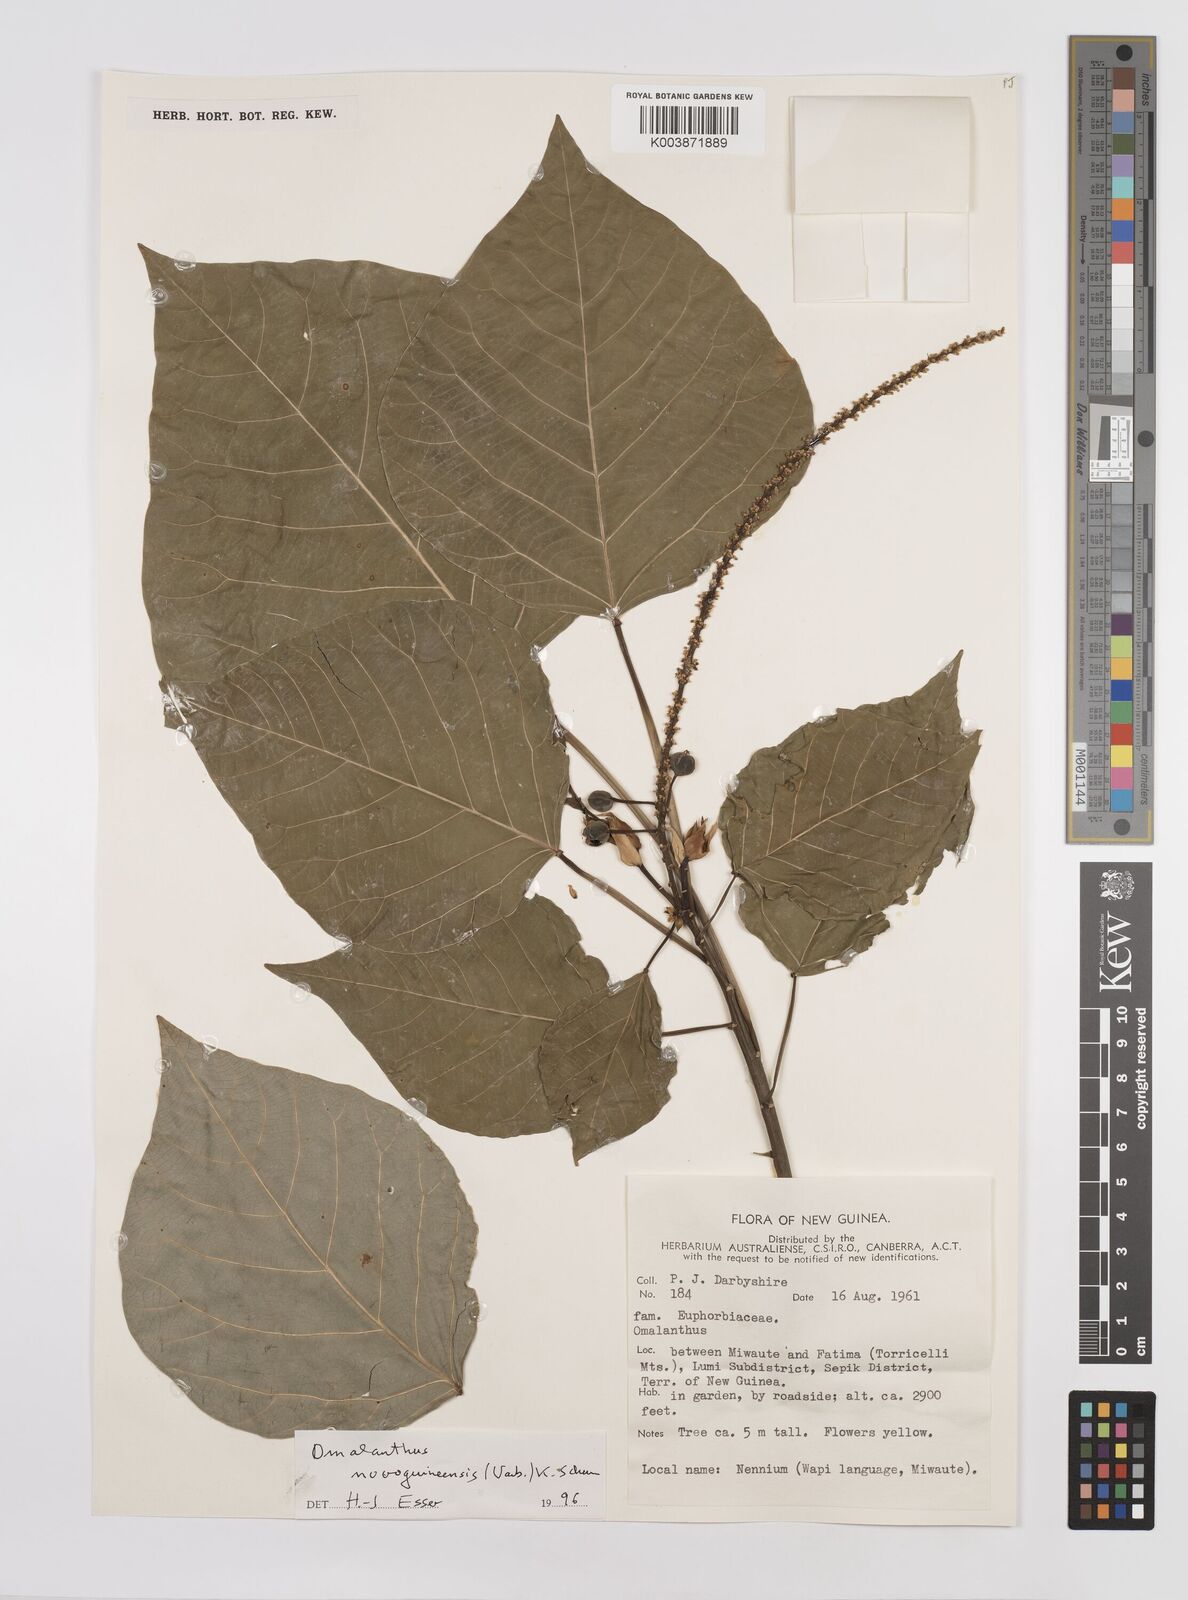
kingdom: Plantae
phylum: Tracheophyta
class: Magnoliopsida
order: Malpighiales
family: Euphorbiaceae
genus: Homalanthus
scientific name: Homalanthus novoguineensis
